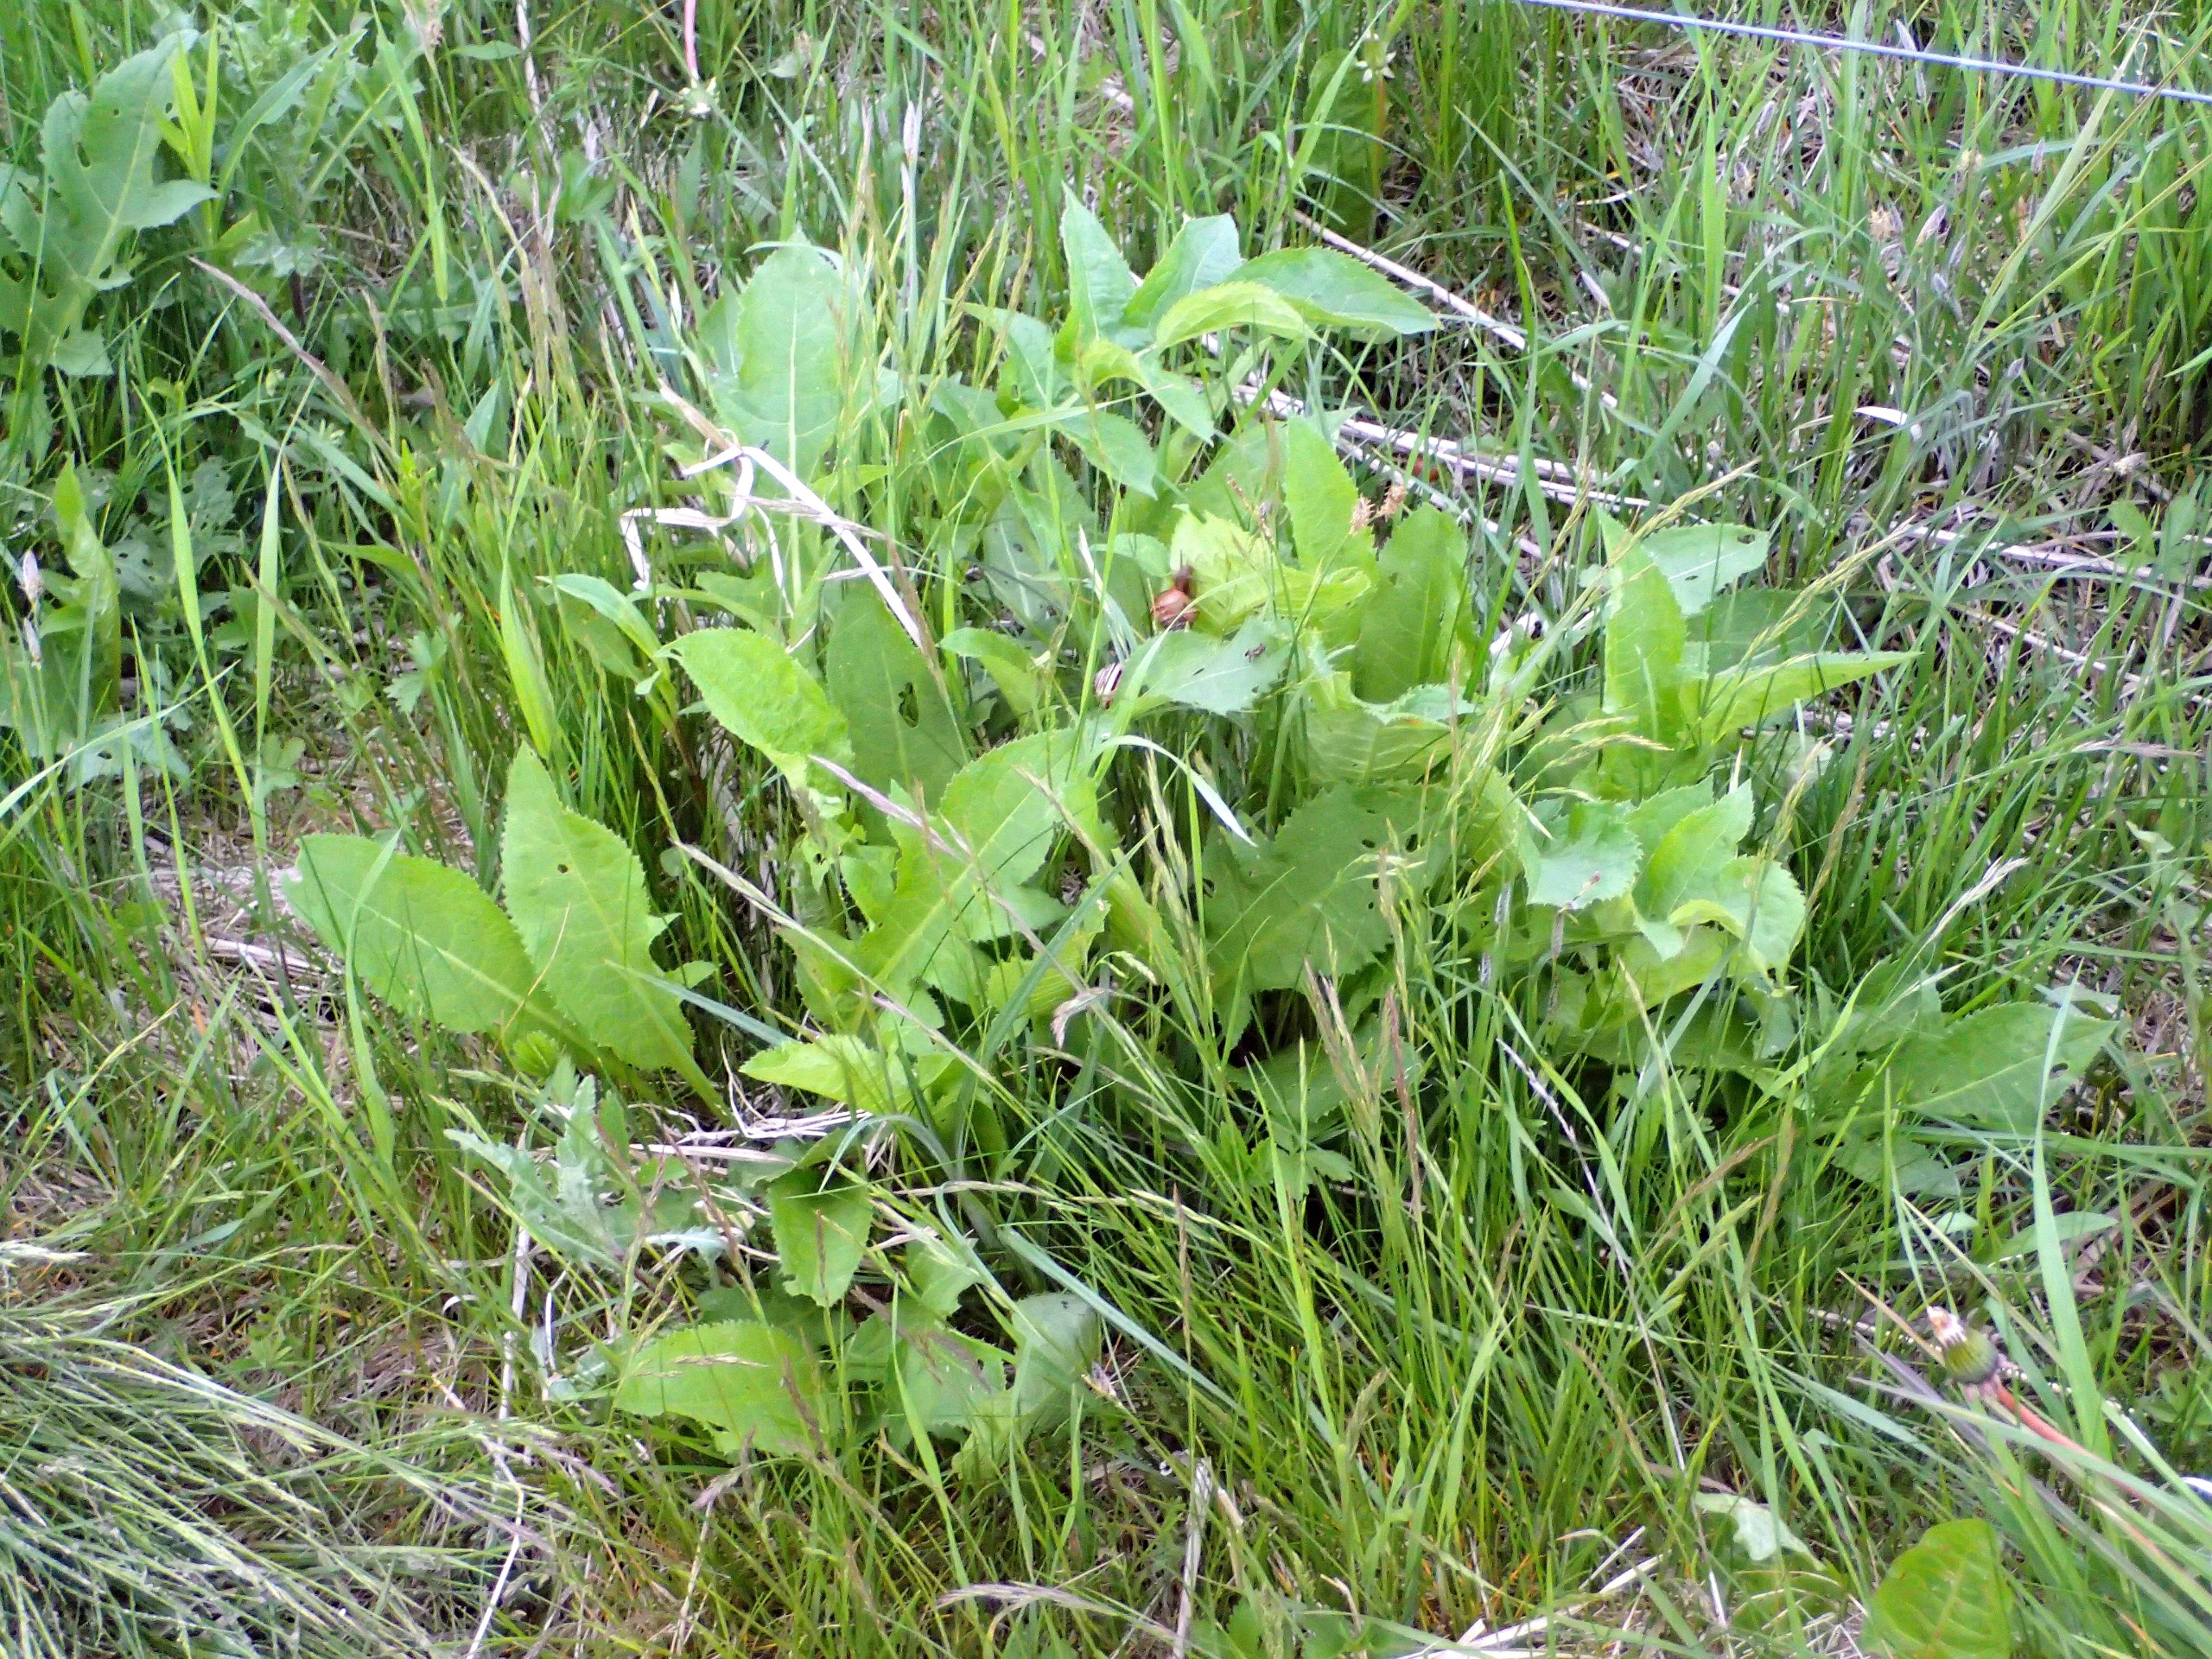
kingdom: Plantae
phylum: Tracheophyta
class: Magnoliopsida
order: Asterales
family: Asteraceae
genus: Cirsium
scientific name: Cirsium oleraceum
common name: Kål-tidsel
